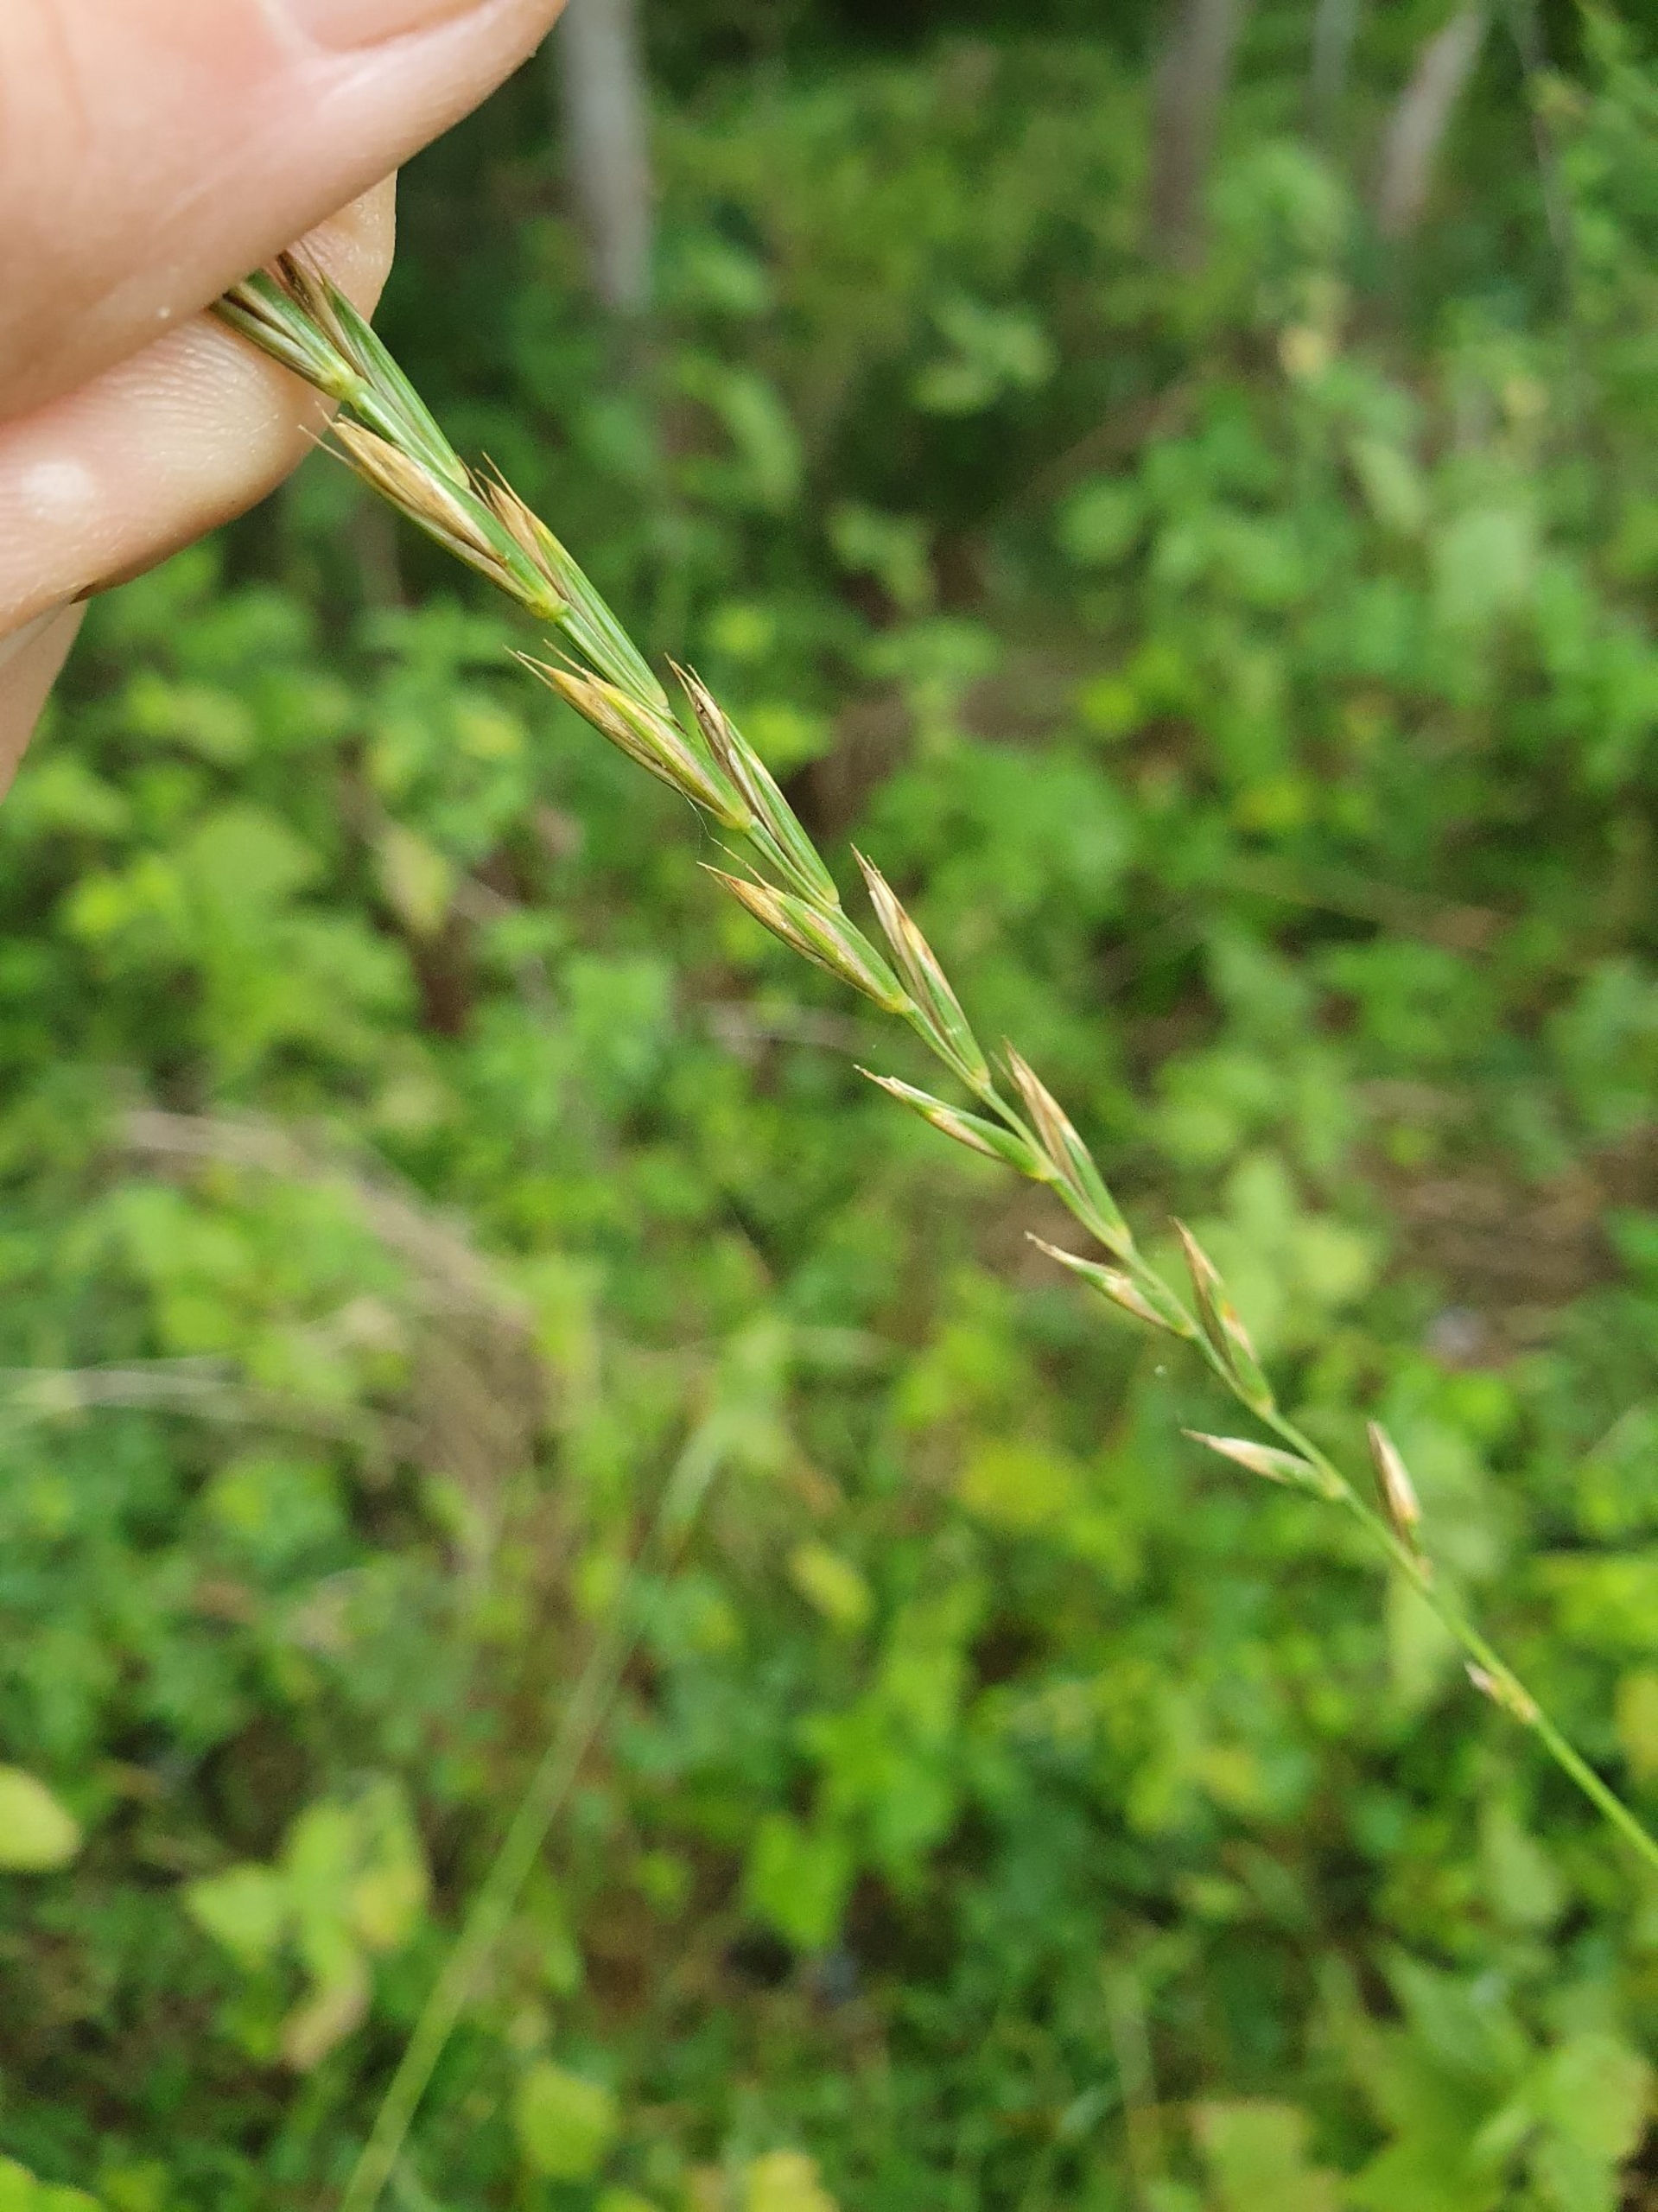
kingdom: Plantae
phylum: Tracheophyta
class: Liliopsida
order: Poales
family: Poaceae
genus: Elymus
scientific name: Elymus repens
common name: Almindelig kvik
